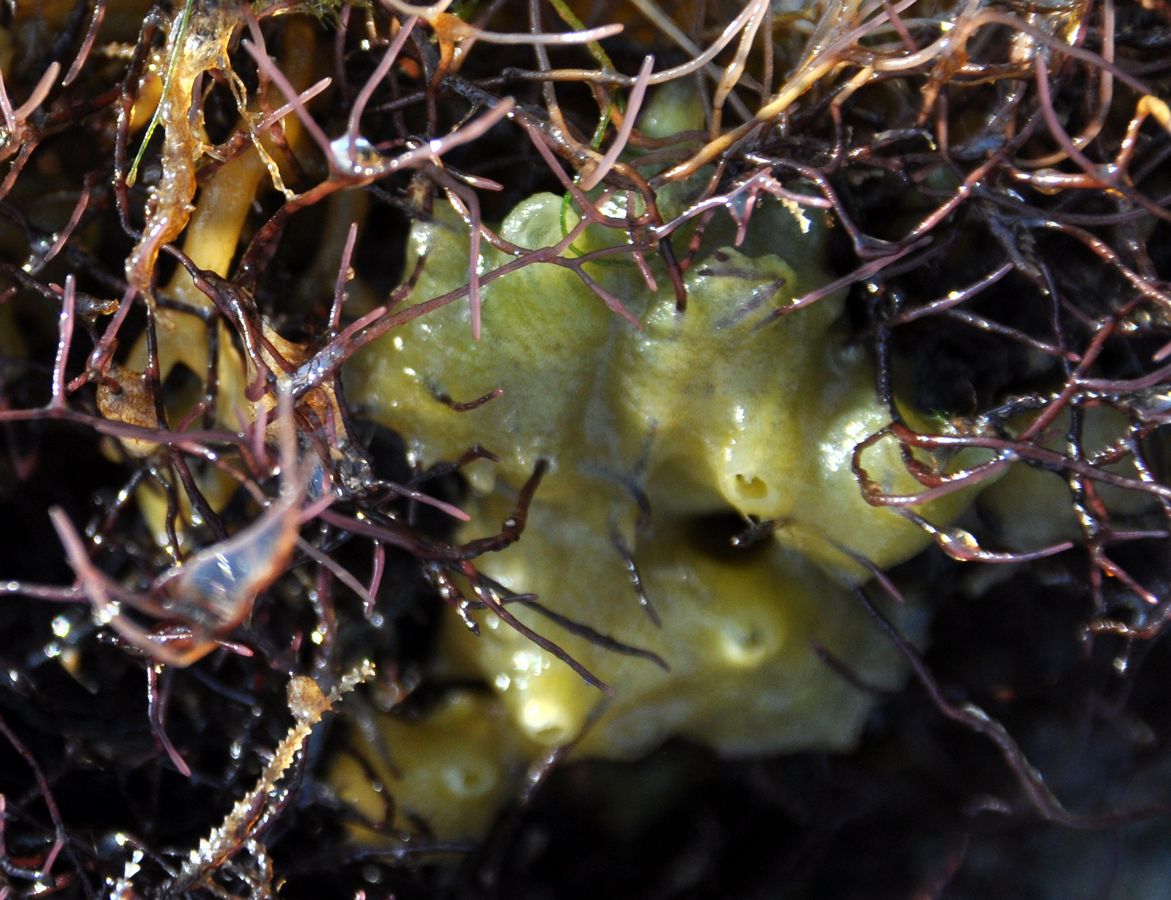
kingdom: Animalia
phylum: Porifera
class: Demospongiae
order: Suberitida
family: Halichondriidae
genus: Halichondria
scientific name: Halichondria panicea
